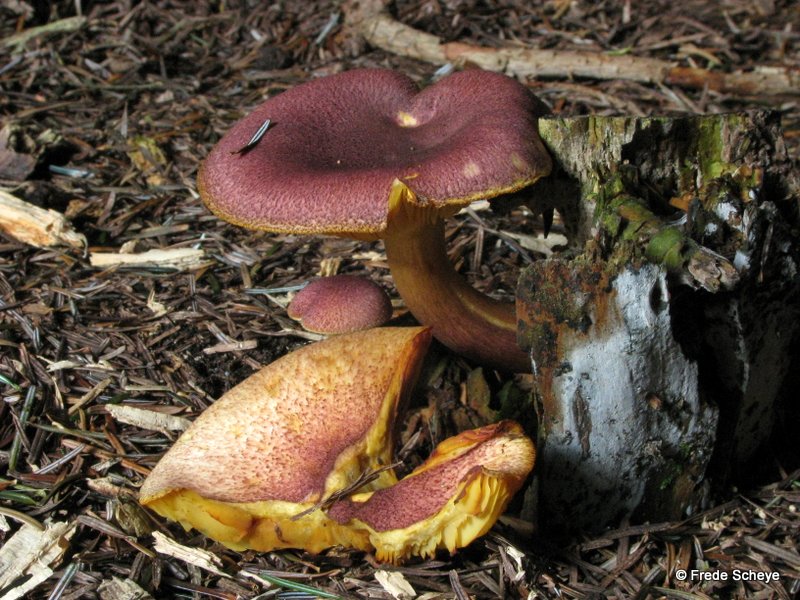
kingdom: Fungi
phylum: Basidiomycota
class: Agaricomycetes
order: Agaricales
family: Tricholomataceae
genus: Tricholomopsis
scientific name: Tricholomopsis rutilans
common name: purpur-væbnerhat
